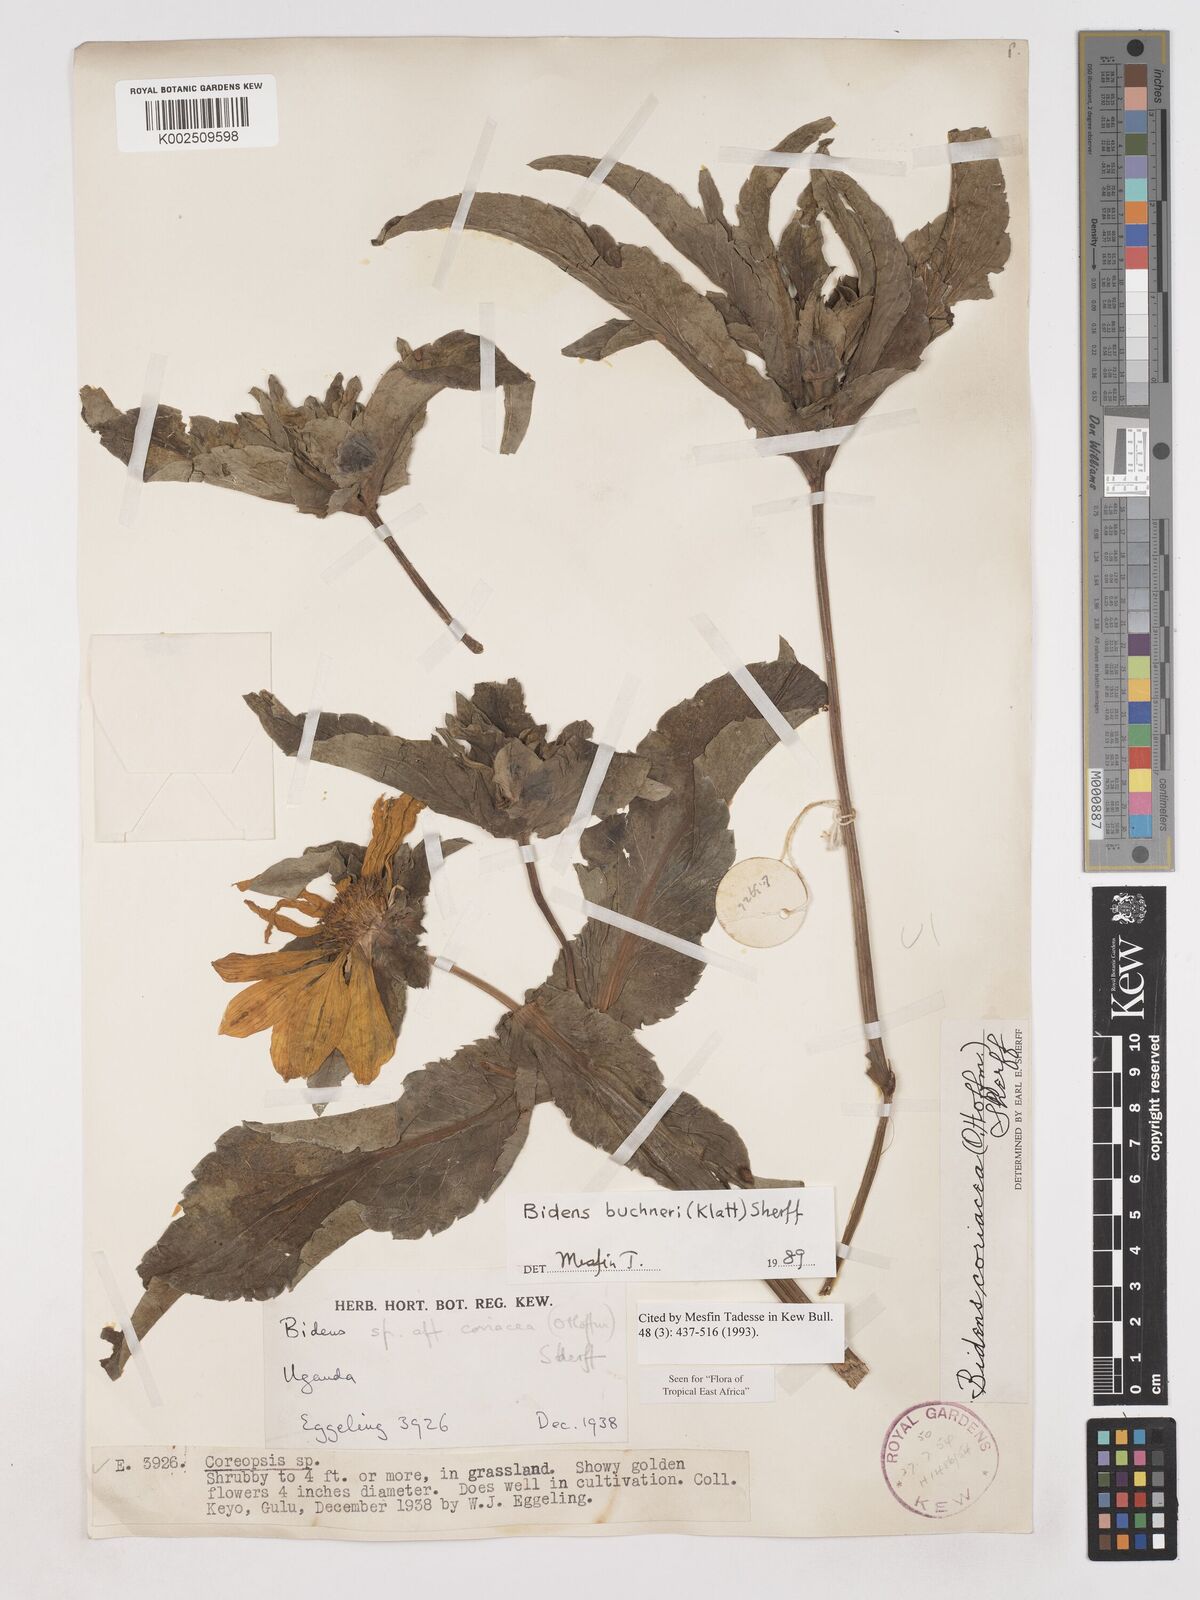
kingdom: Plantae
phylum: Tracheophyta
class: Magnoliopsida
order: Asterales
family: Asteraceae
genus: Bidens
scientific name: Bidens buchneri
